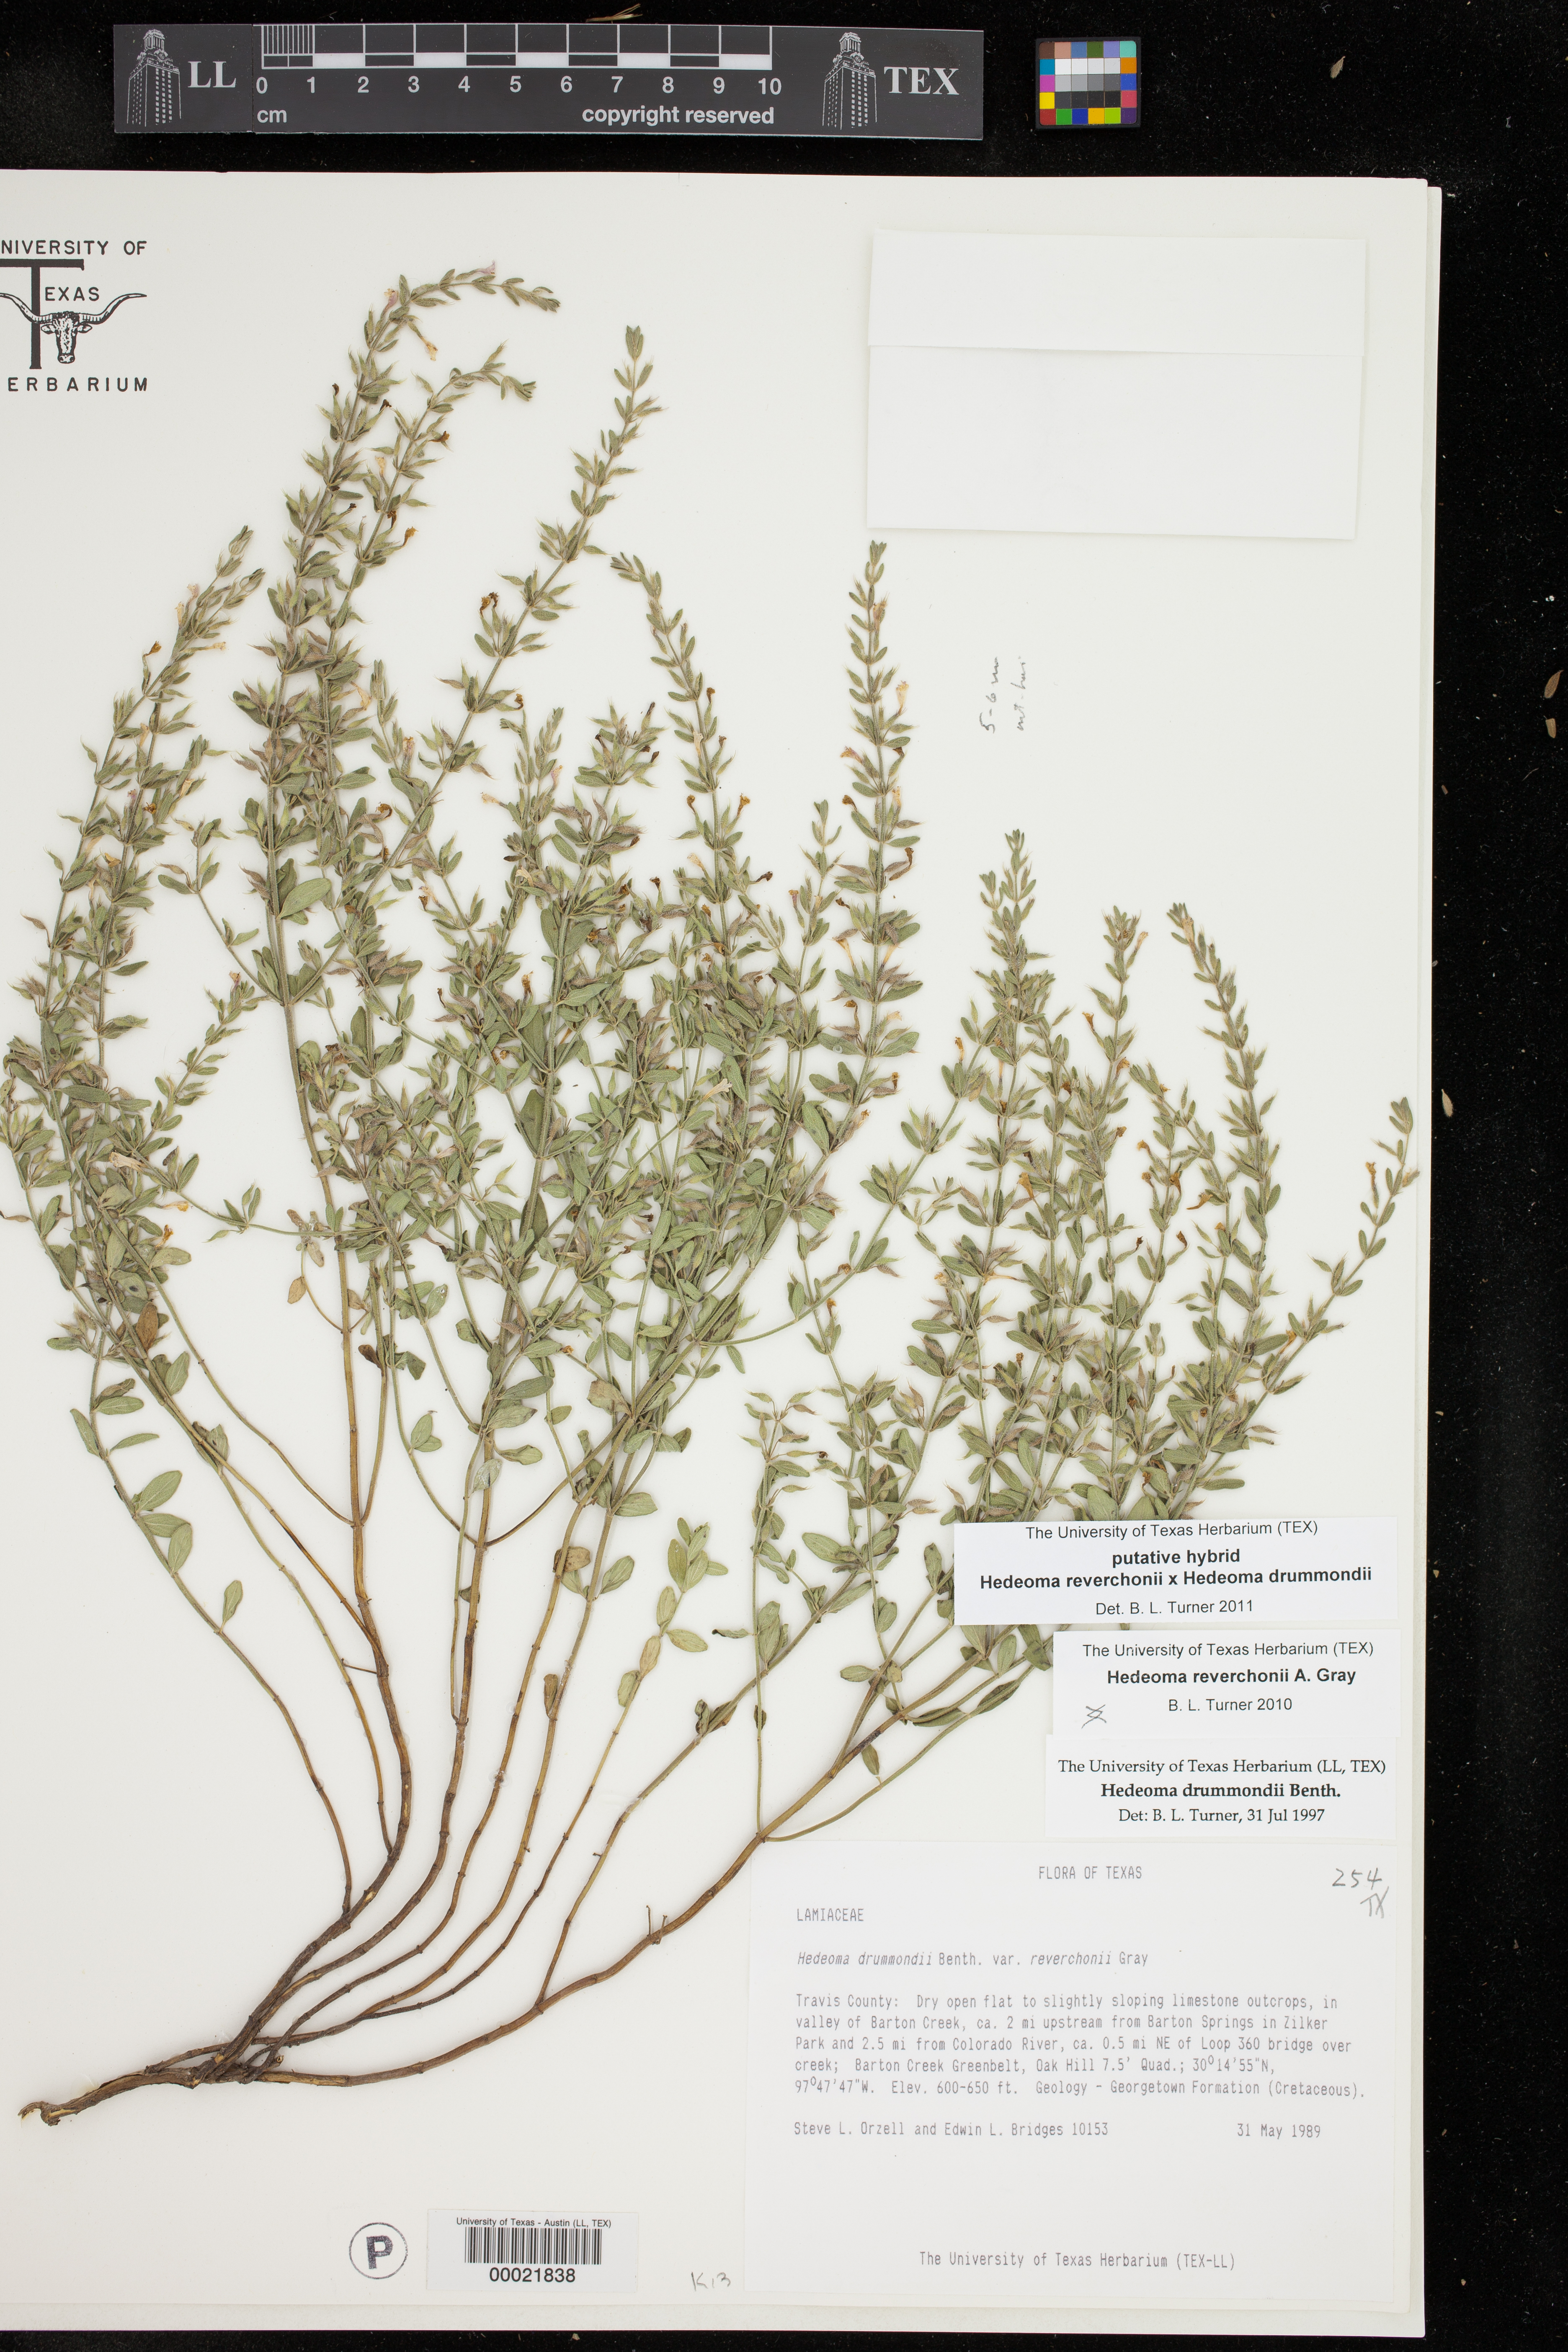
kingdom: Plantae
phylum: Tracheophyta
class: Magnoliopsida
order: Lamiales
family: Lamiaceae
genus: Hedeoma
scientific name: Hedeoma drummondii
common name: New mexico pennyroyal
